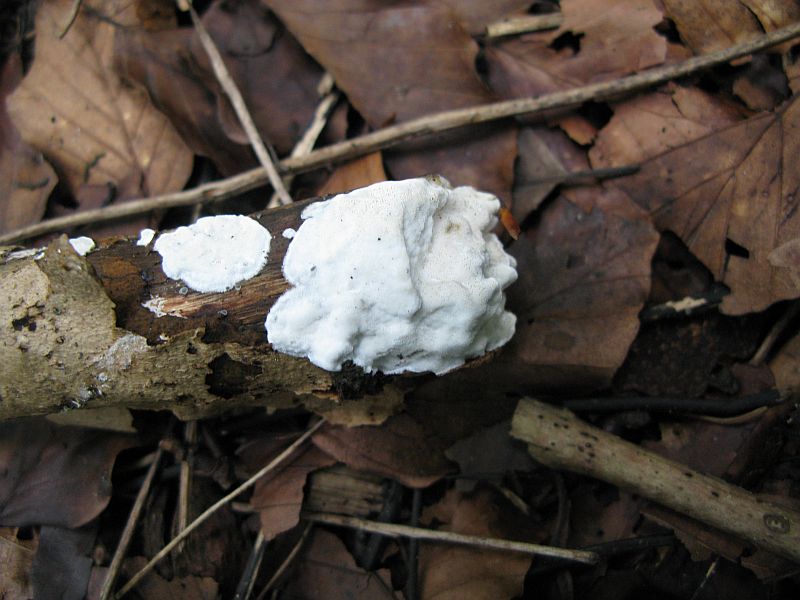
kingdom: Fungi
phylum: Basidiomycota
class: Agaricomycetes
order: Polyporales
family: Incrustoporiaceae
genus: Skeletocutis
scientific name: Skeletocutis nemoralis
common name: stor krystalporesvamp
